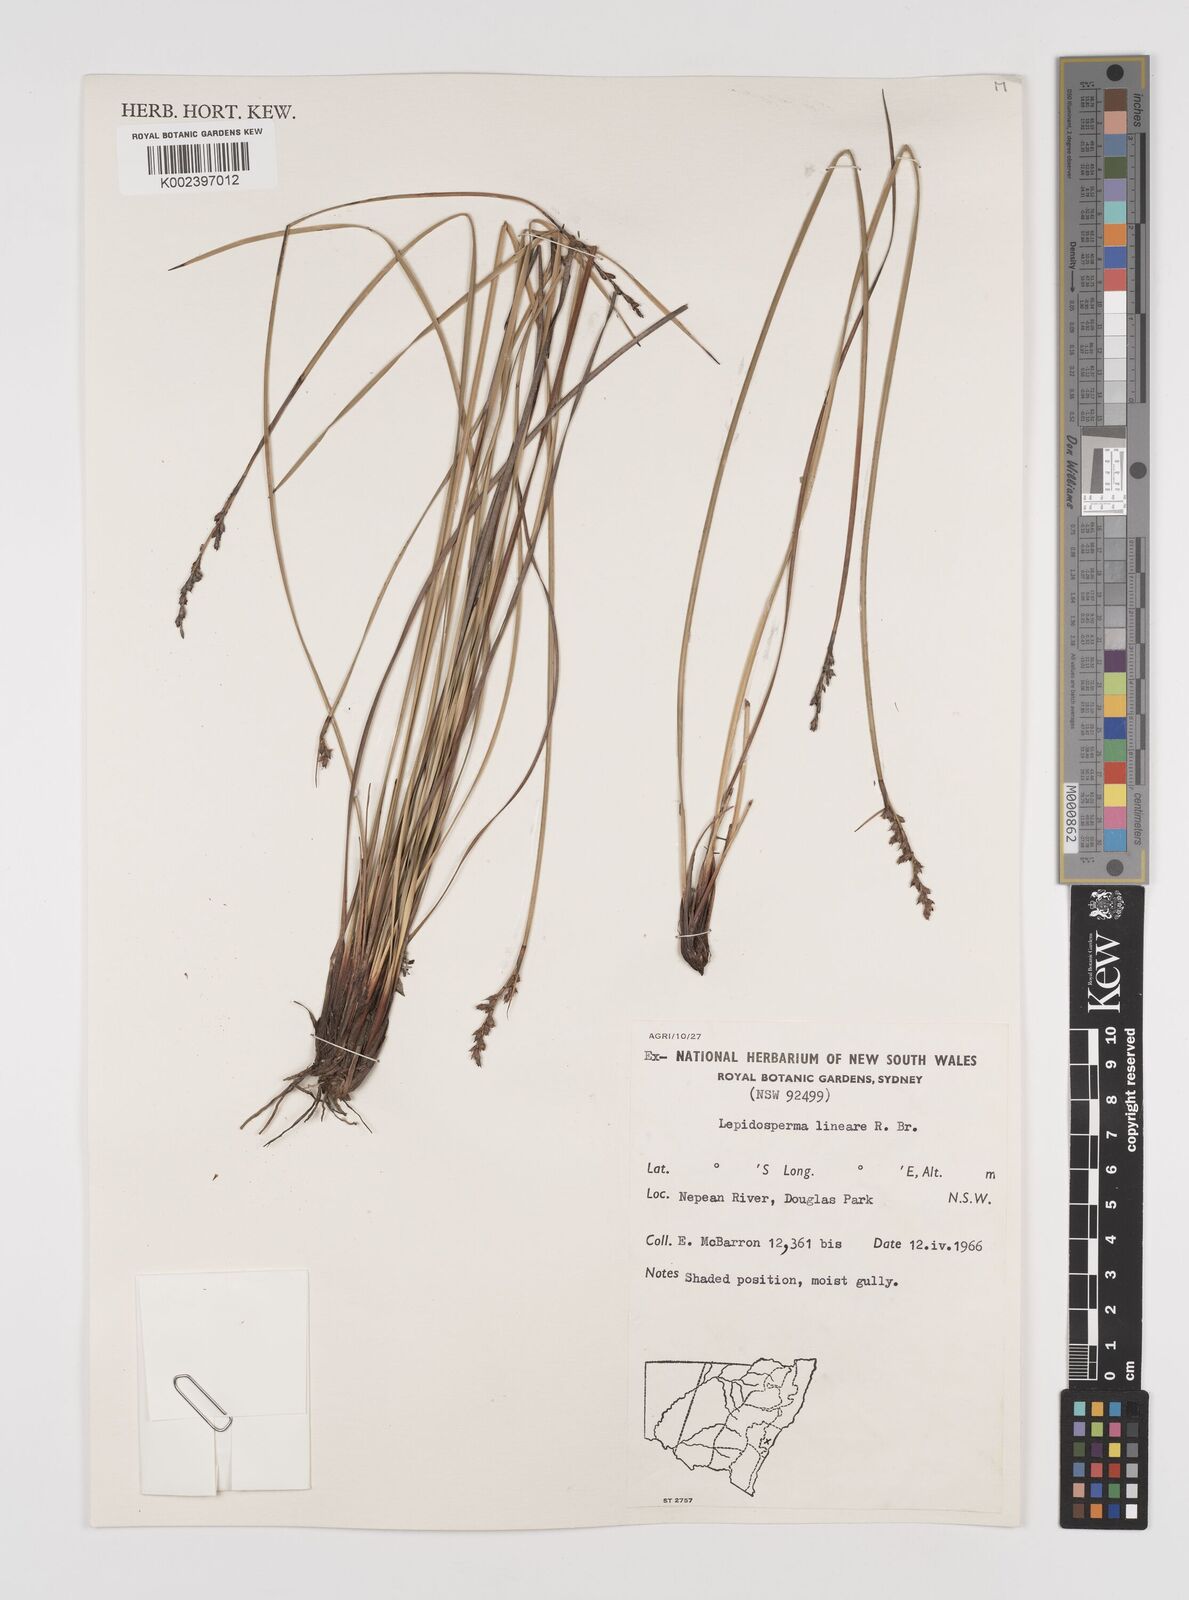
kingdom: Plantae
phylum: Tracheophyta
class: Liliopsida
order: Poales
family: Cyperaceae
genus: Lepidosperma
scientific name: Lepidosperma lineare
